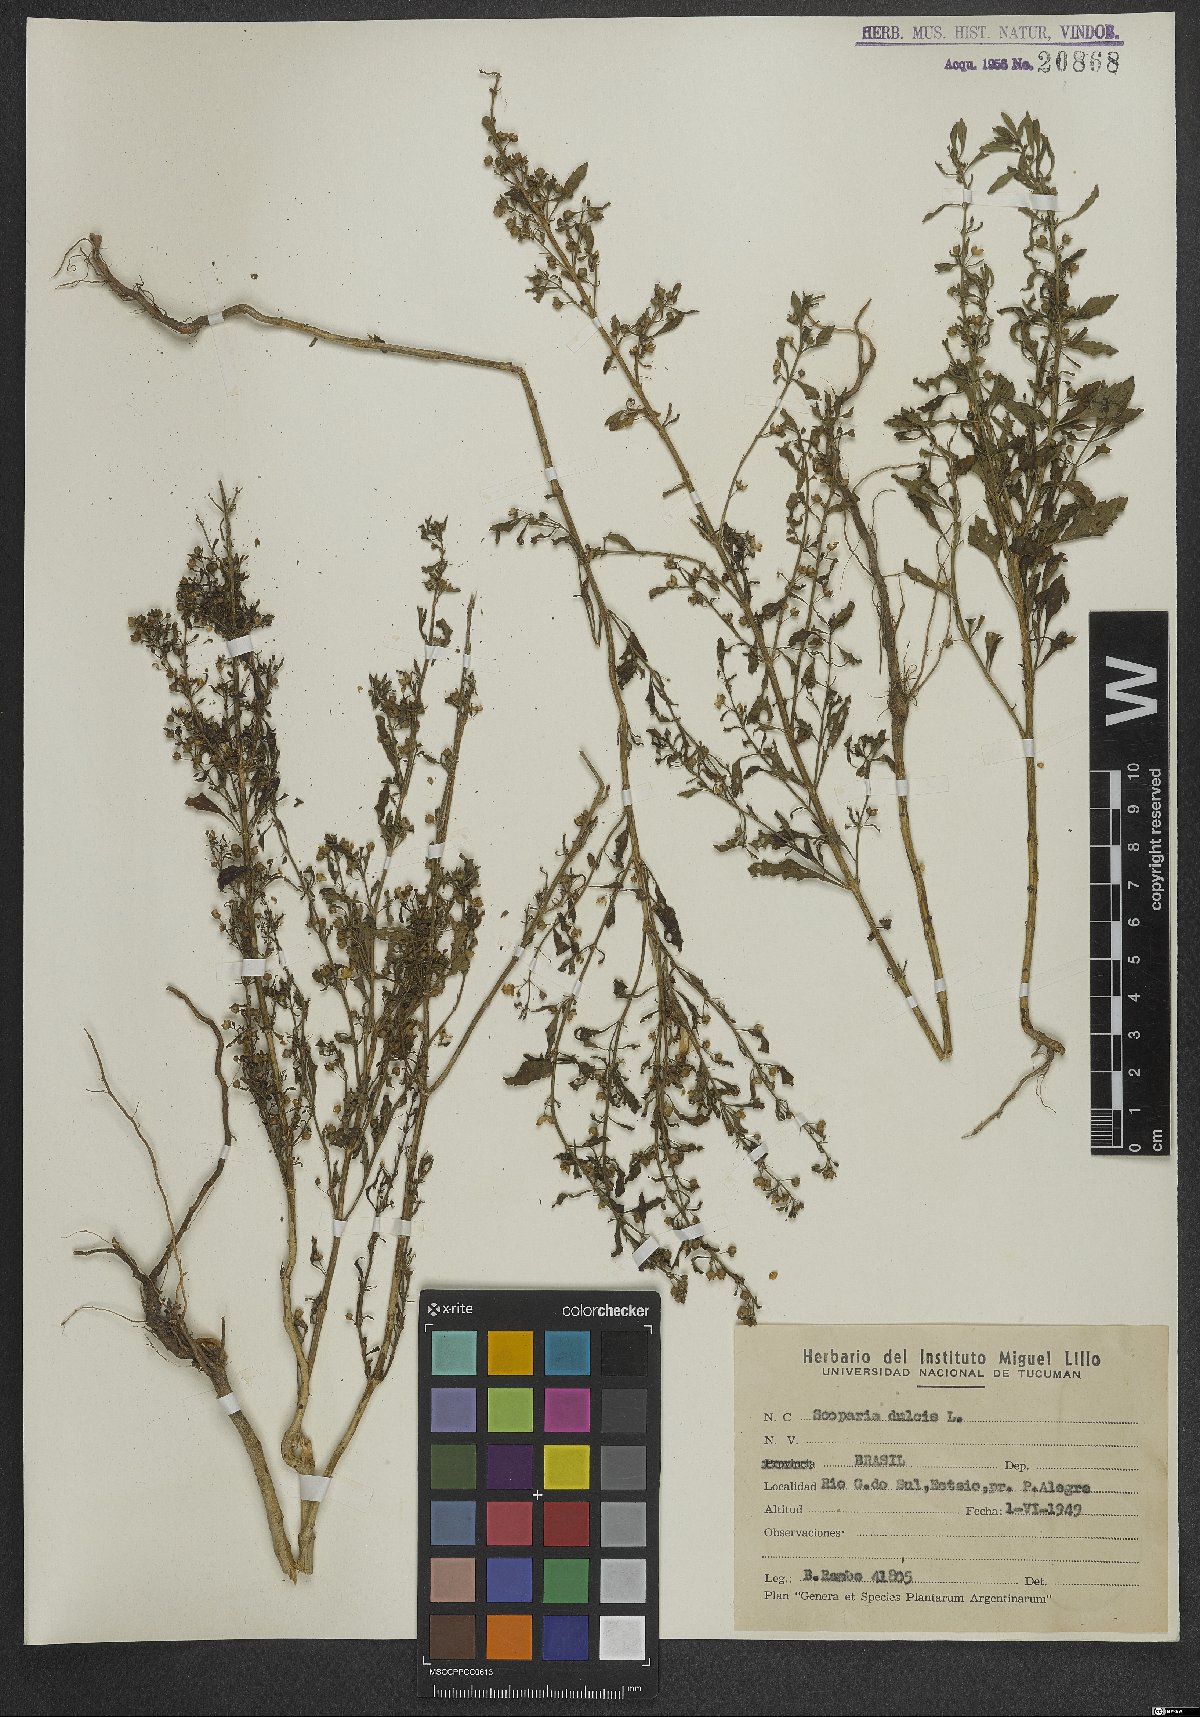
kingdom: Plantae
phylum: Tracheophyta
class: Magnoliopsida
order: Lamiales
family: Plantaginaceae
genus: Scoparia
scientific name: Scoparia dulcis
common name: Scoparia-weed
